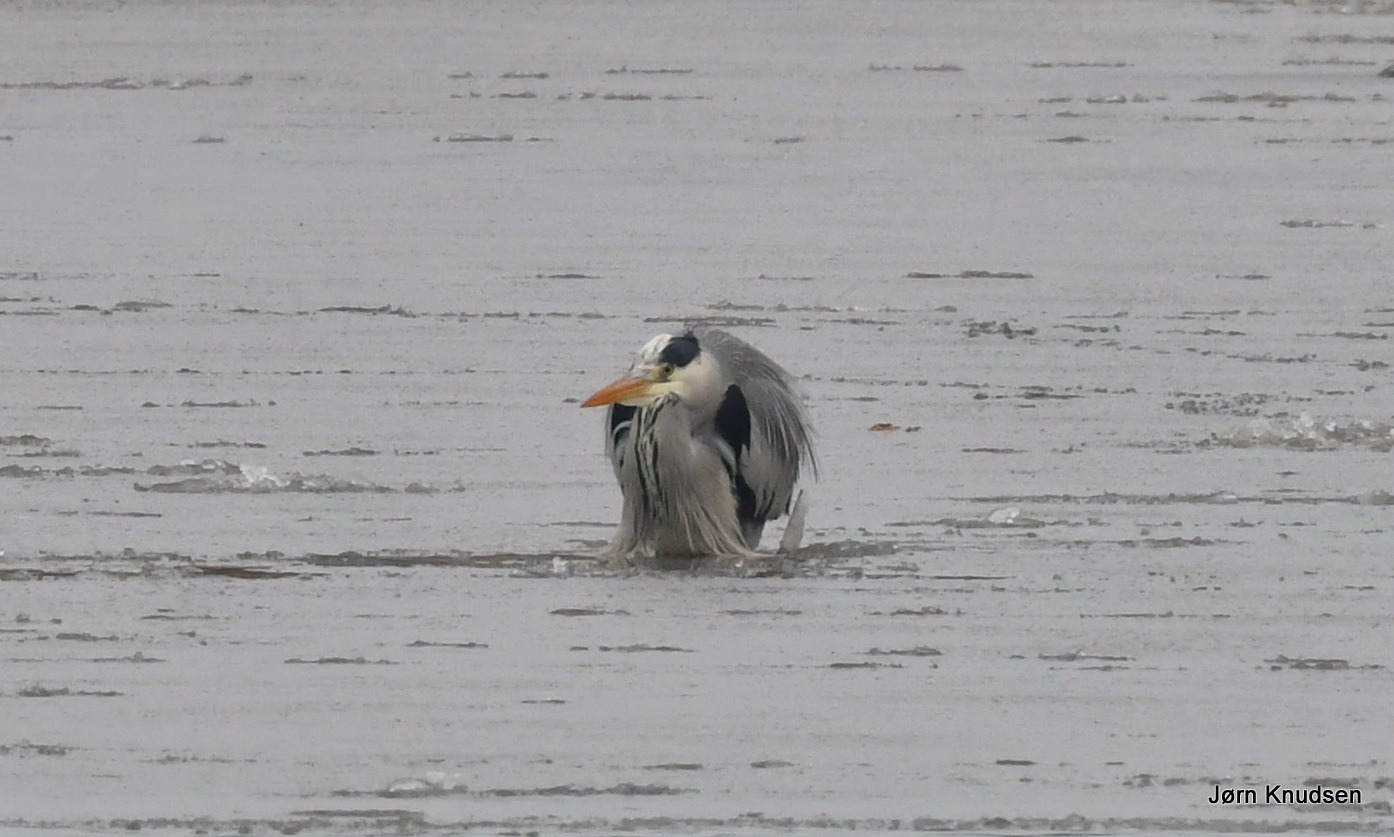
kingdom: Animalia
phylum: Chordata
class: Aves
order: Pelecaniformes
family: Ardeidae
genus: Ardea
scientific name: Ardea cinerea
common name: Fiskehejre
